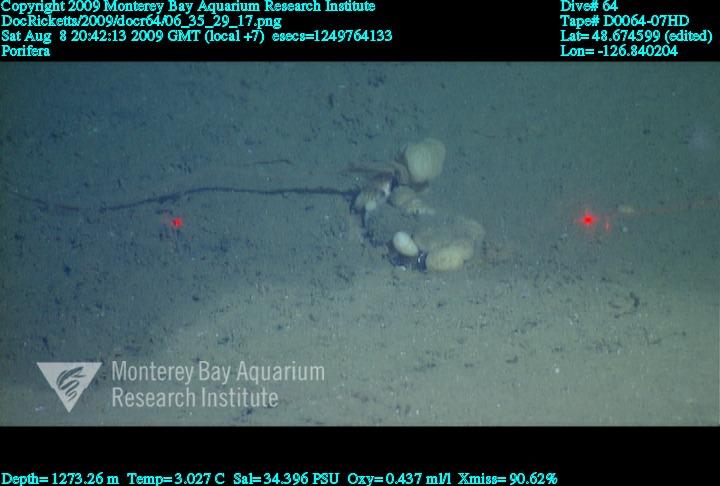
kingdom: Animalia
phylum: Porifera
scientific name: Porifera
